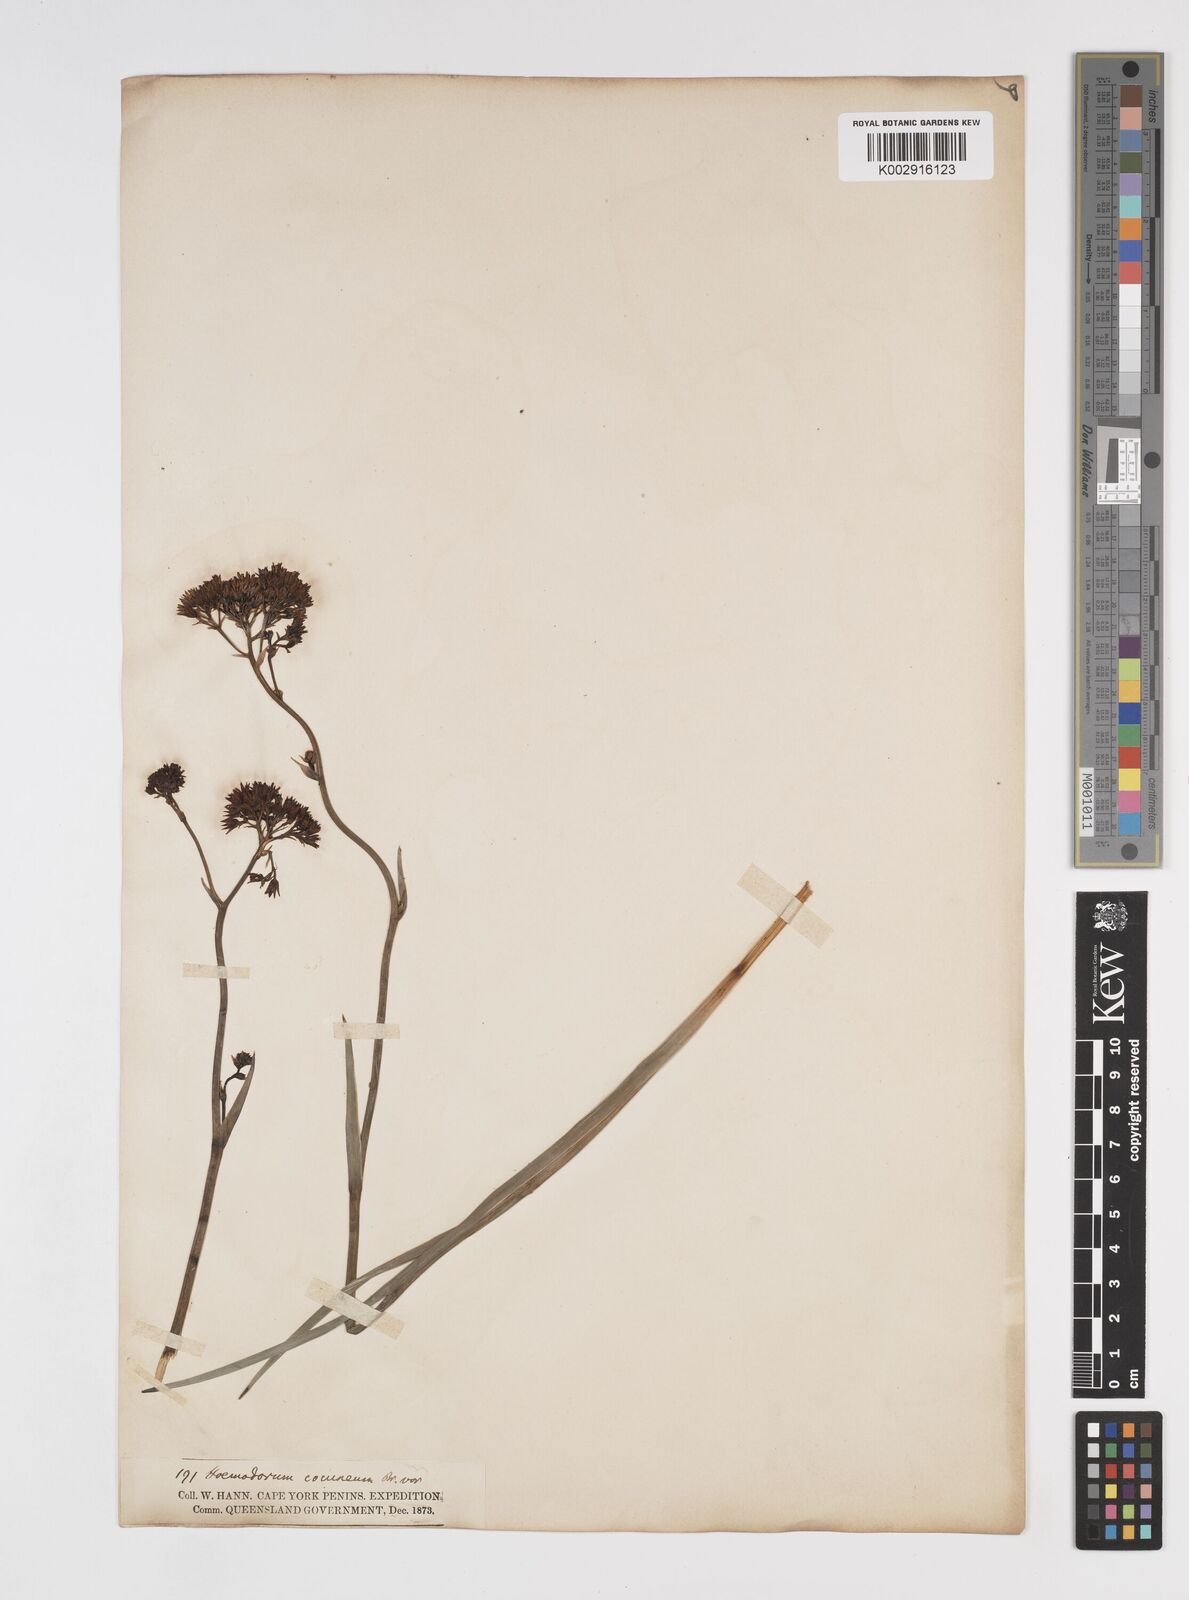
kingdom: Plantae
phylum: Tracheophyta
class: Liliopsida
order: Commelinales
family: Haemodoraceae
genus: Haemodorum
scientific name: Haemodorum coccineum
